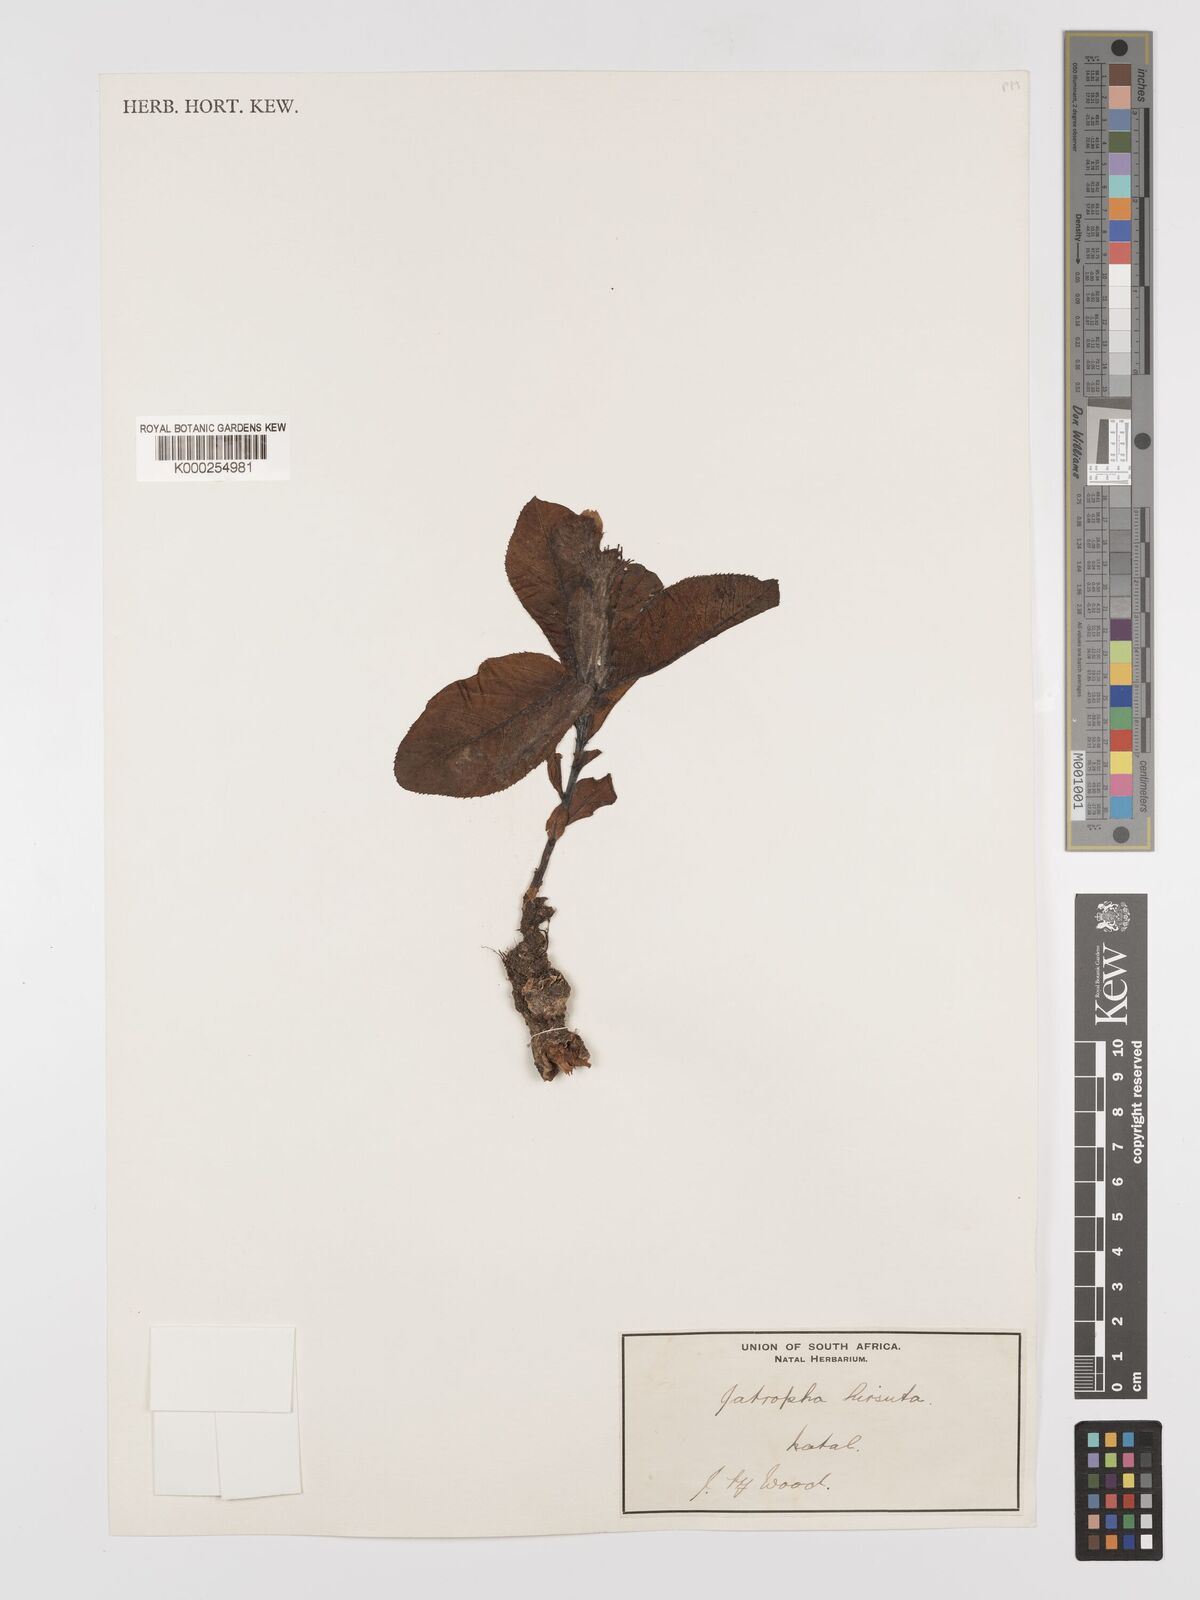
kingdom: Plantae
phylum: Tracheophyta
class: Magnoliopsida
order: Malpighiales
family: Euphorbiaceae
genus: Jatropha
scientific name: Jatropha hirsuta
